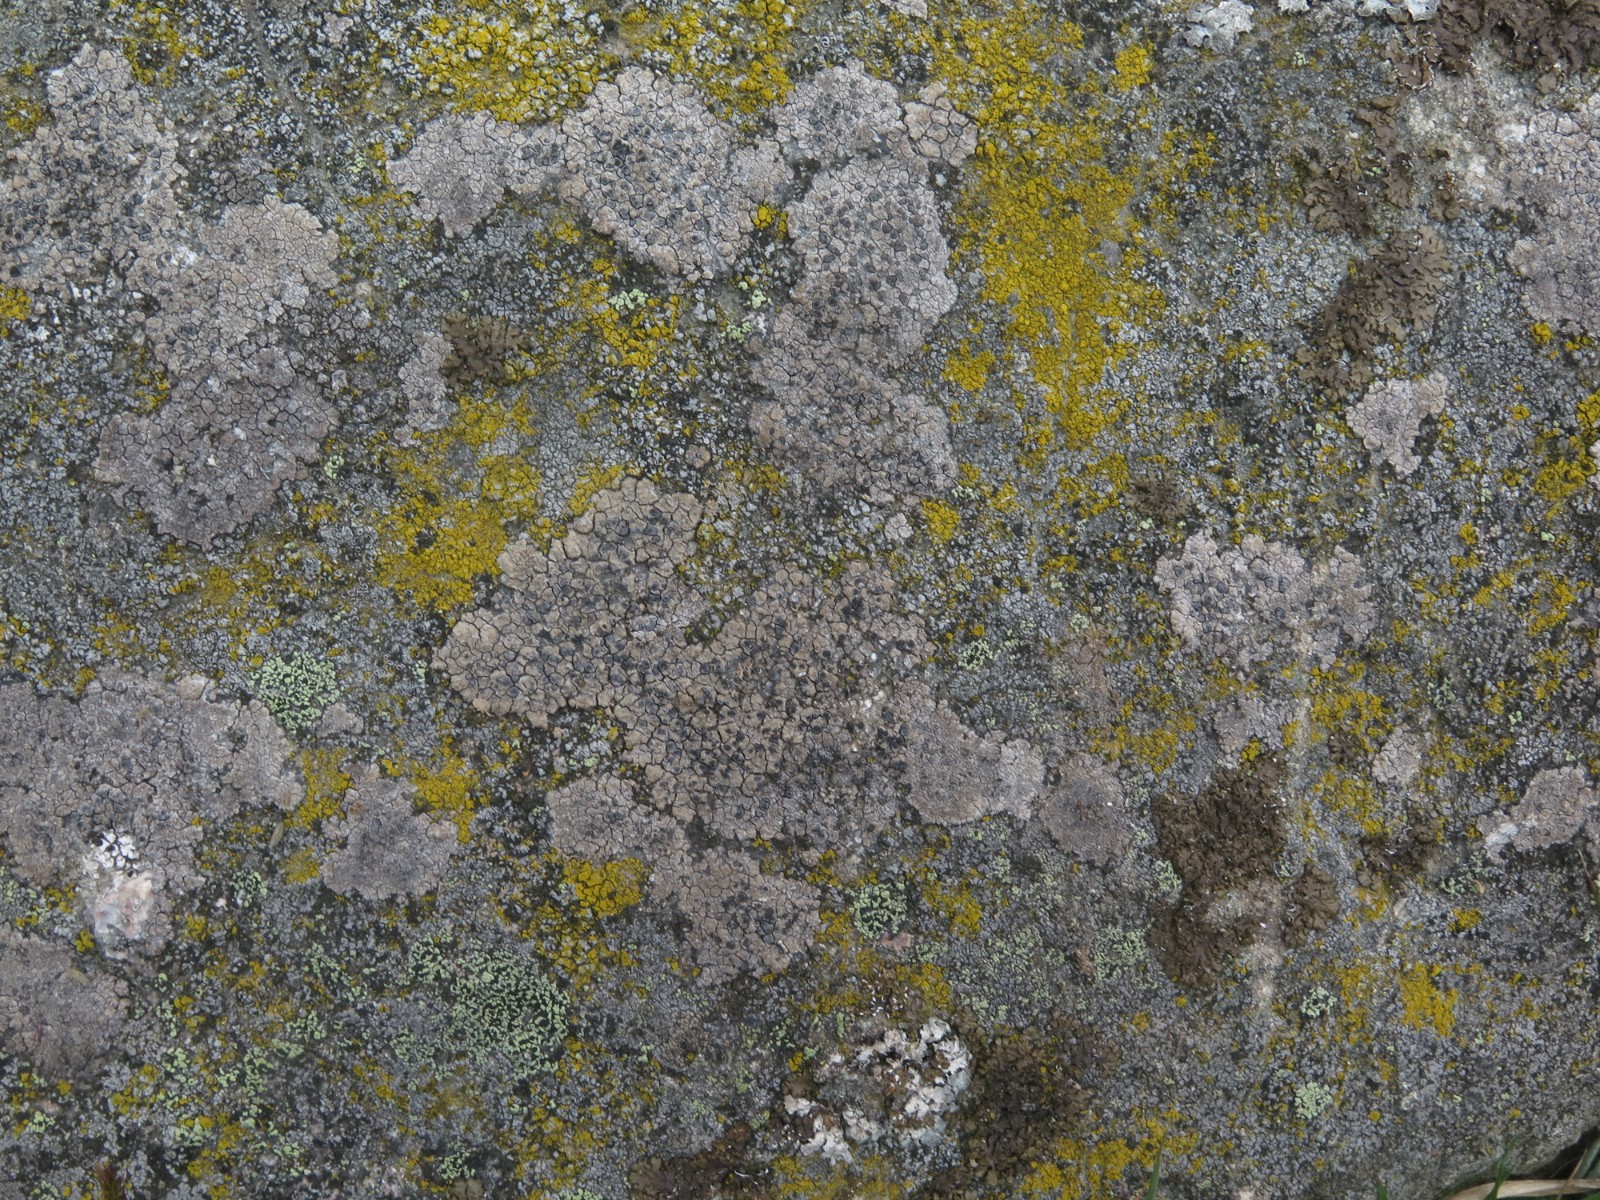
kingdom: Fungi
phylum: Ascomycota
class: Lecanoromycetes
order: Lecideales
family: Lecideaceae
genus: Lecidea
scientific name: Lecidea fuscoatra
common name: rudret skivelav
